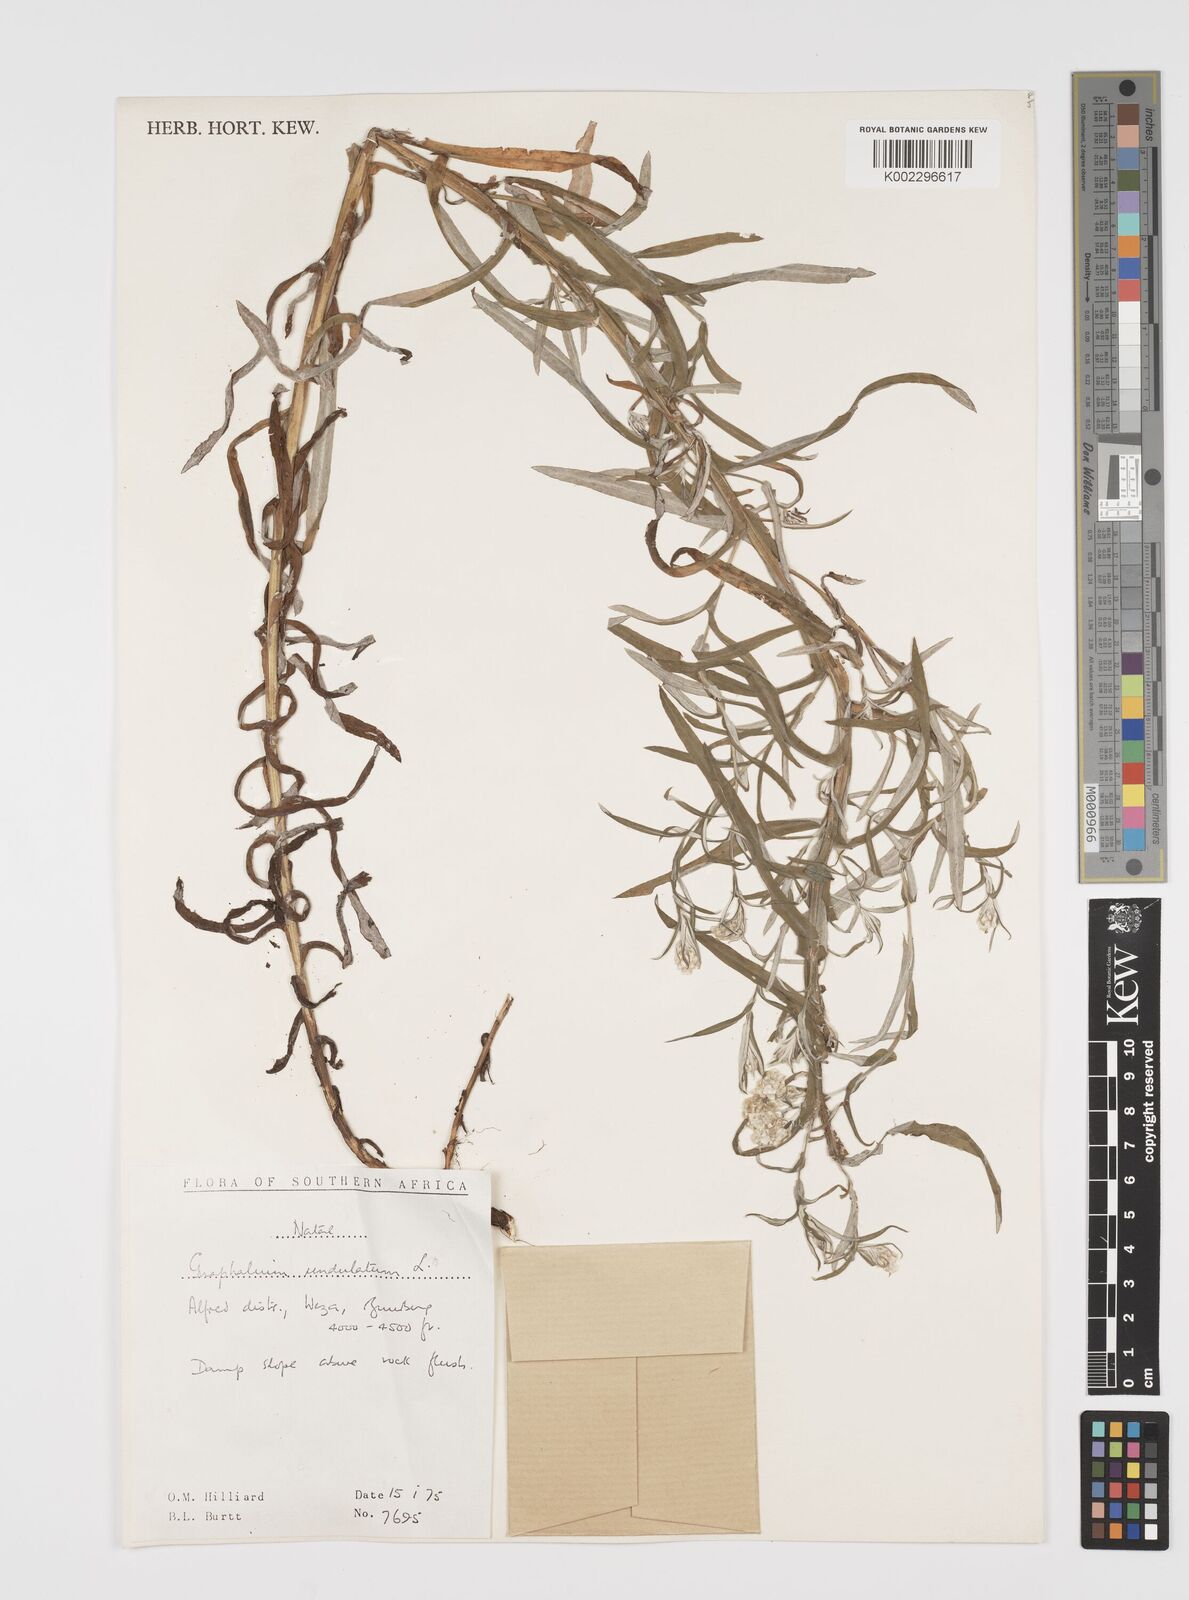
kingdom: Plantae
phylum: Tracheophyta
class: Magnoliopsida
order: Asterales
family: Asteraceae
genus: Pseudognaphalium
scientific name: Pseudognaphalium undulatum
